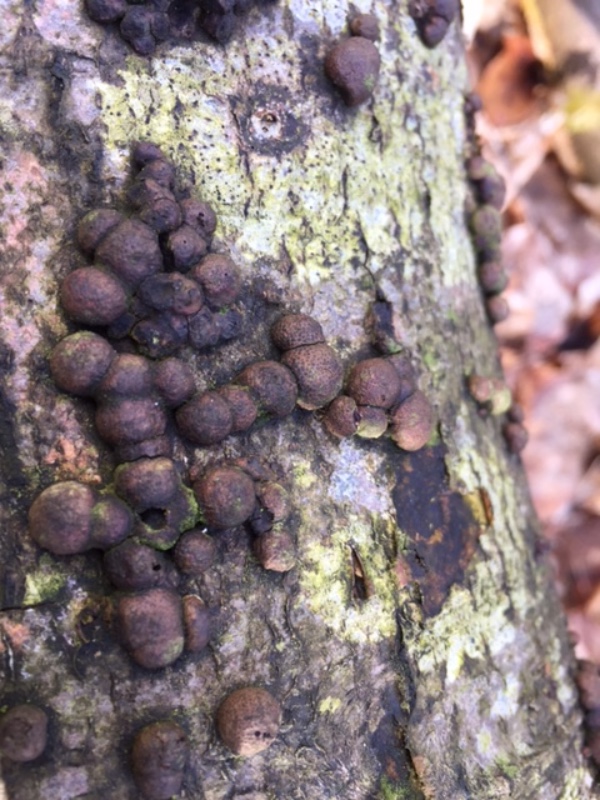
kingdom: Fungi
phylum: Ascomycota
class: Sordariomycetes
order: Xylariales
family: Hypoxylaceae
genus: Hypoxylon
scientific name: Hypoxylon fragiforme
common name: kuljordbær
